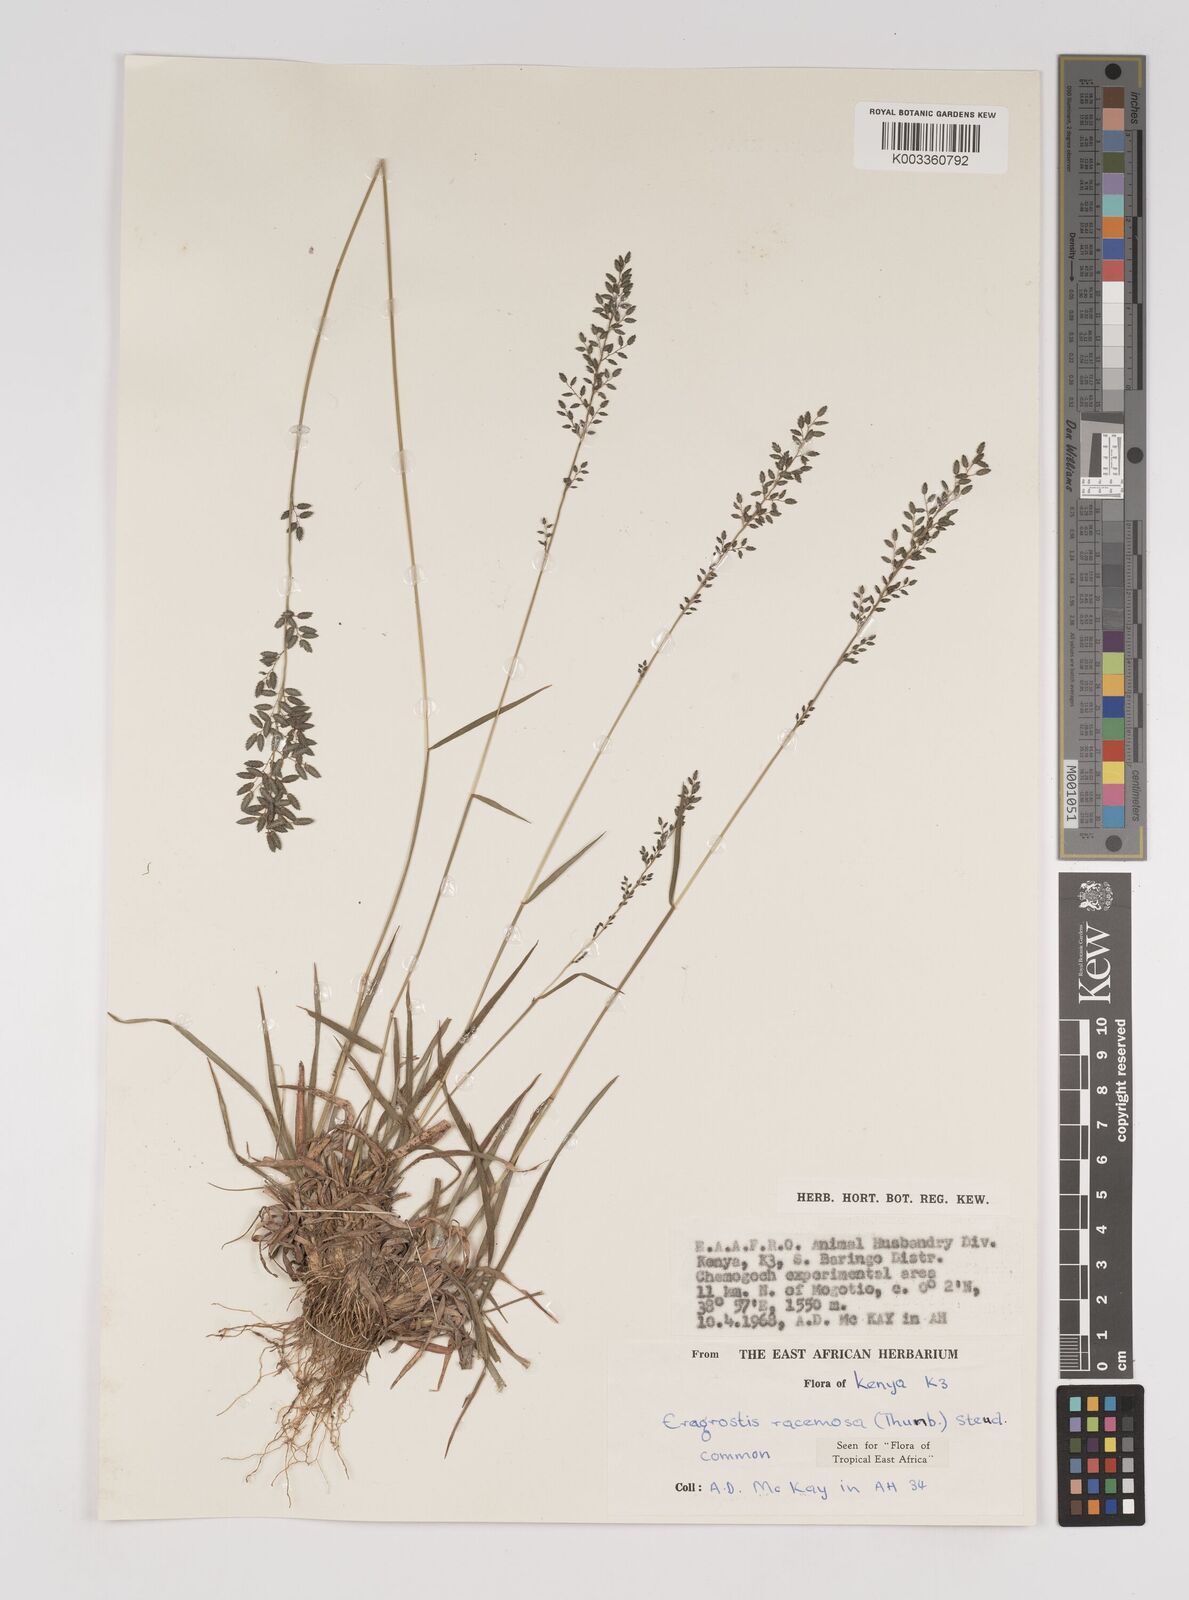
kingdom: Plantae
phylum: Tracheophyta
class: Liliopsida
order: Poales
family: Poaceae
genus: Eragrostis
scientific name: Eragrostis racemosa
